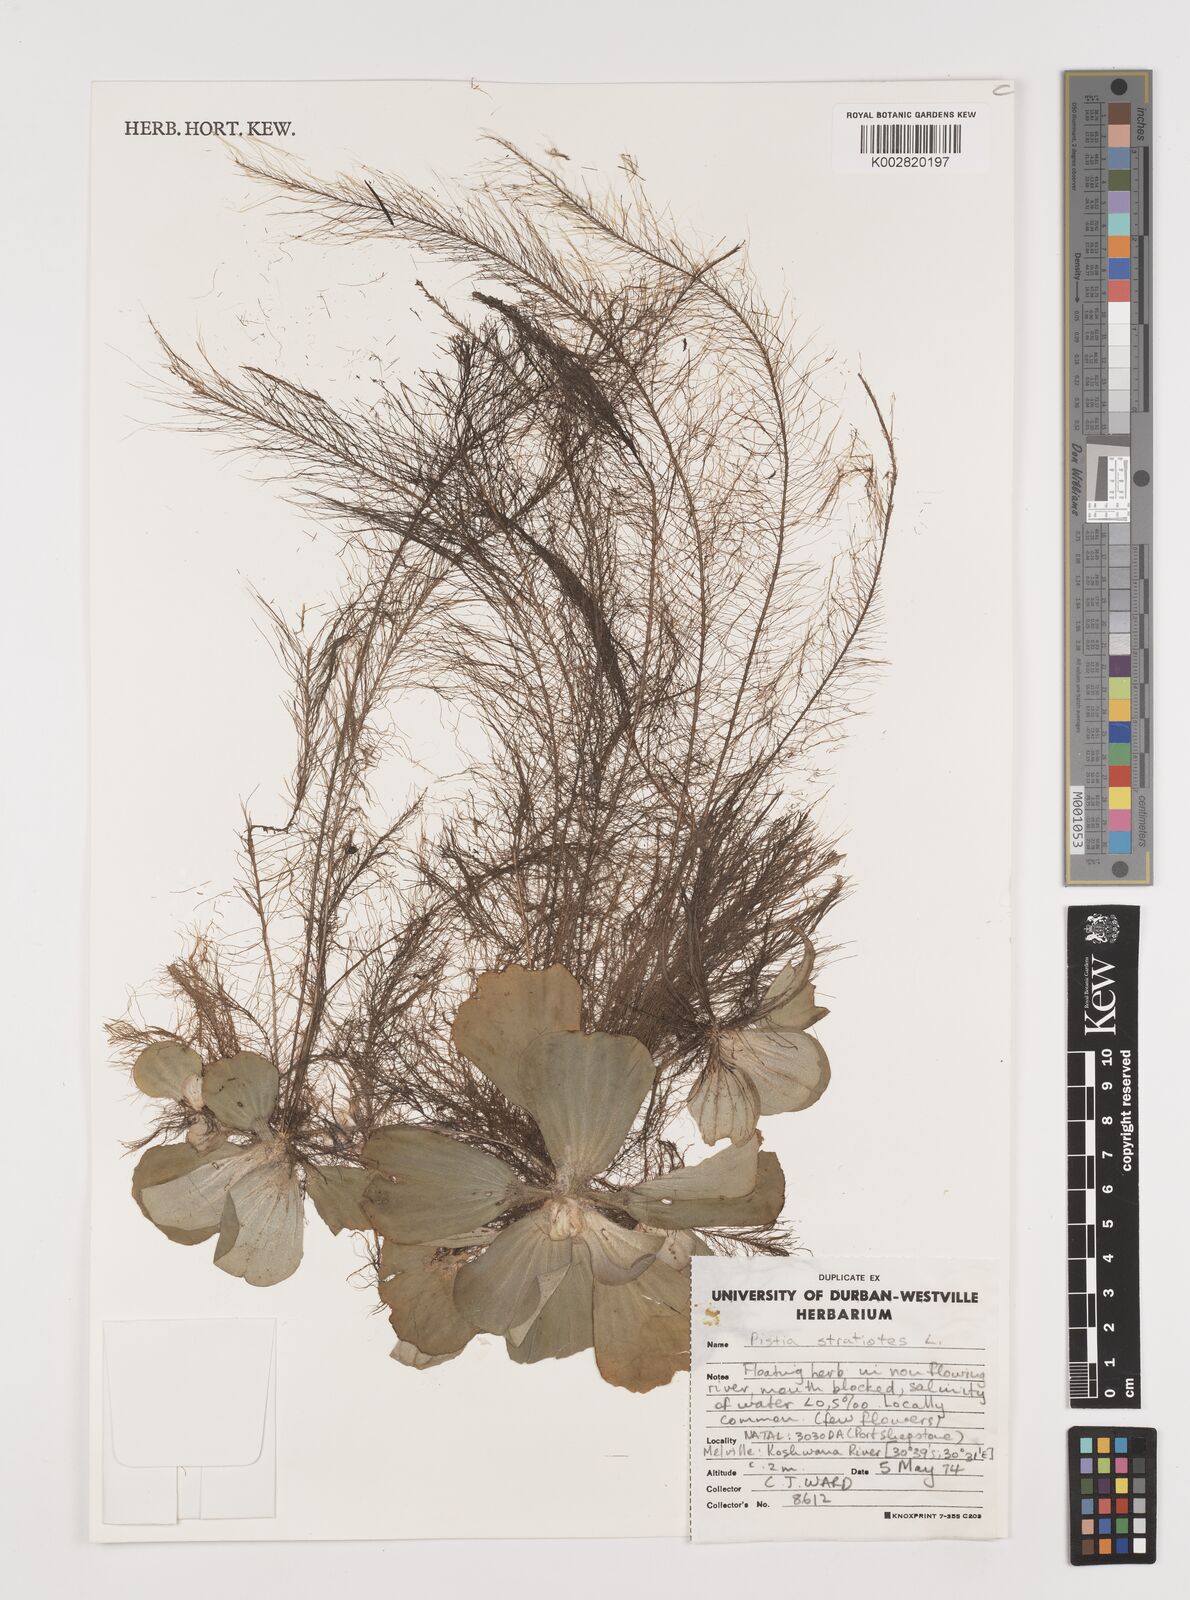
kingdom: Plantae
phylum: Tracheophyta
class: Liliopsida
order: Alismatales
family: Araceae
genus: Pistia
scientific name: Pistia stratiotes
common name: Water lettuce
